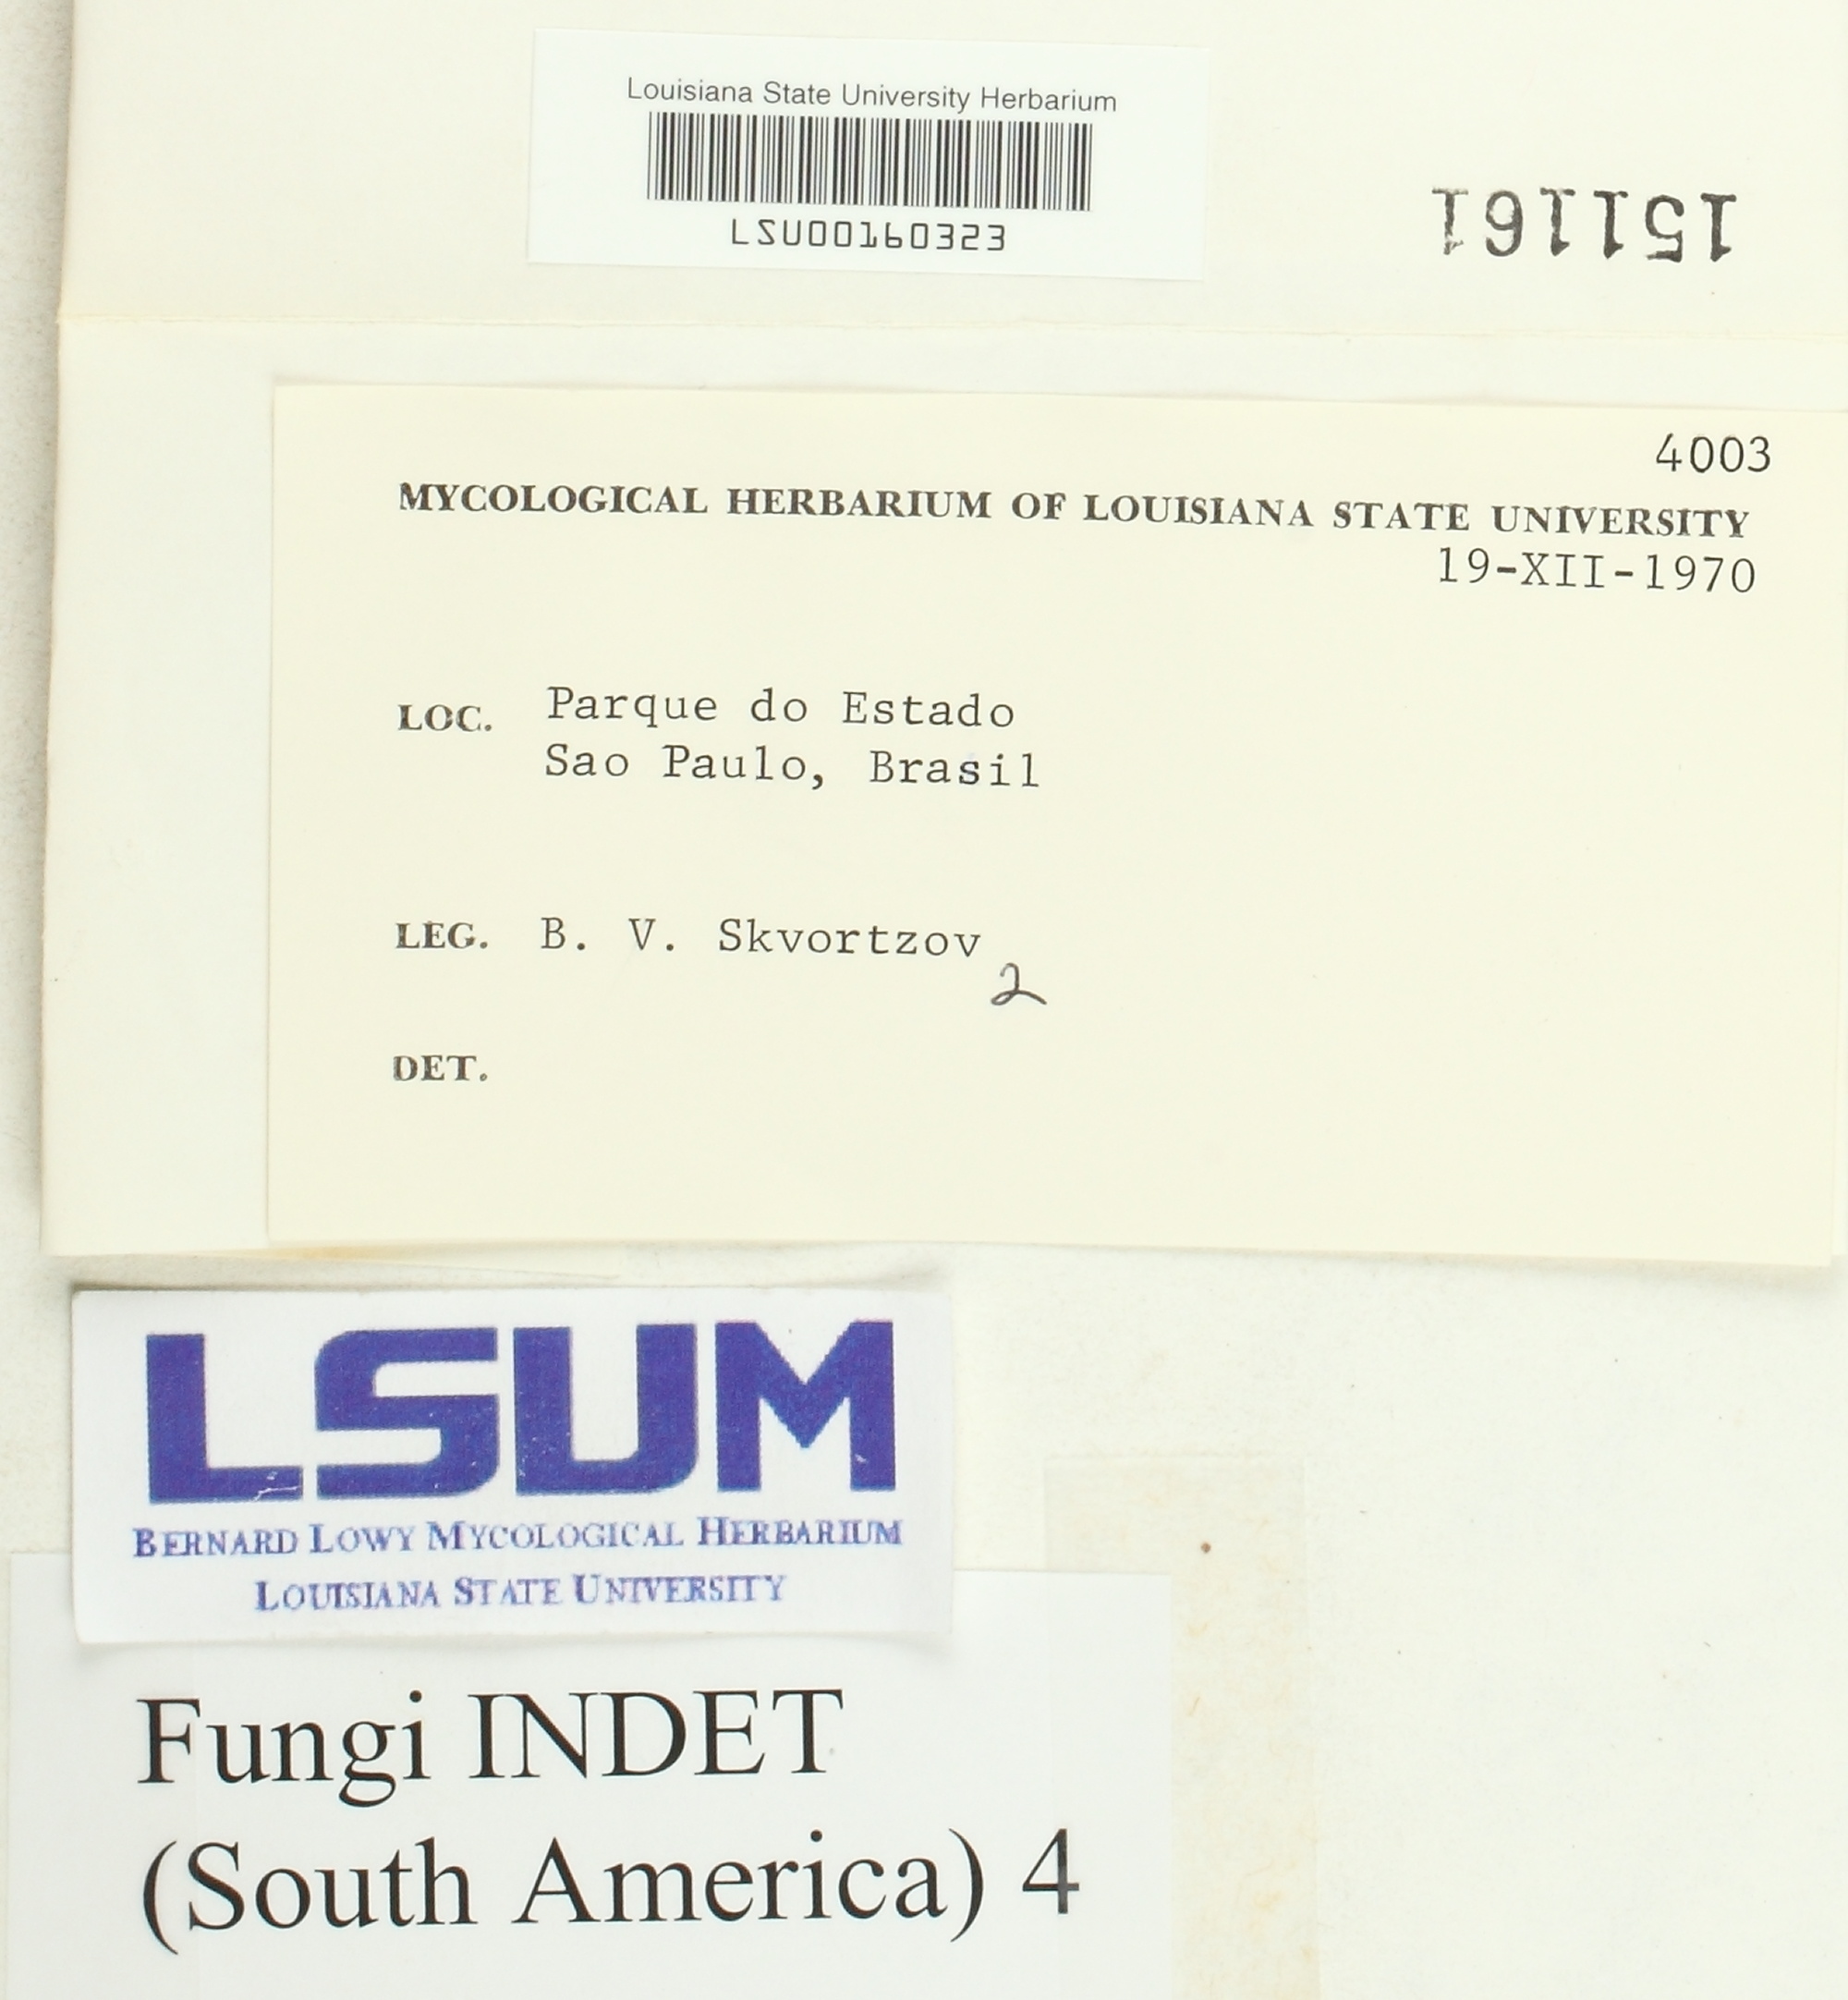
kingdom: Fungi
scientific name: Fungi
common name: Fungi
